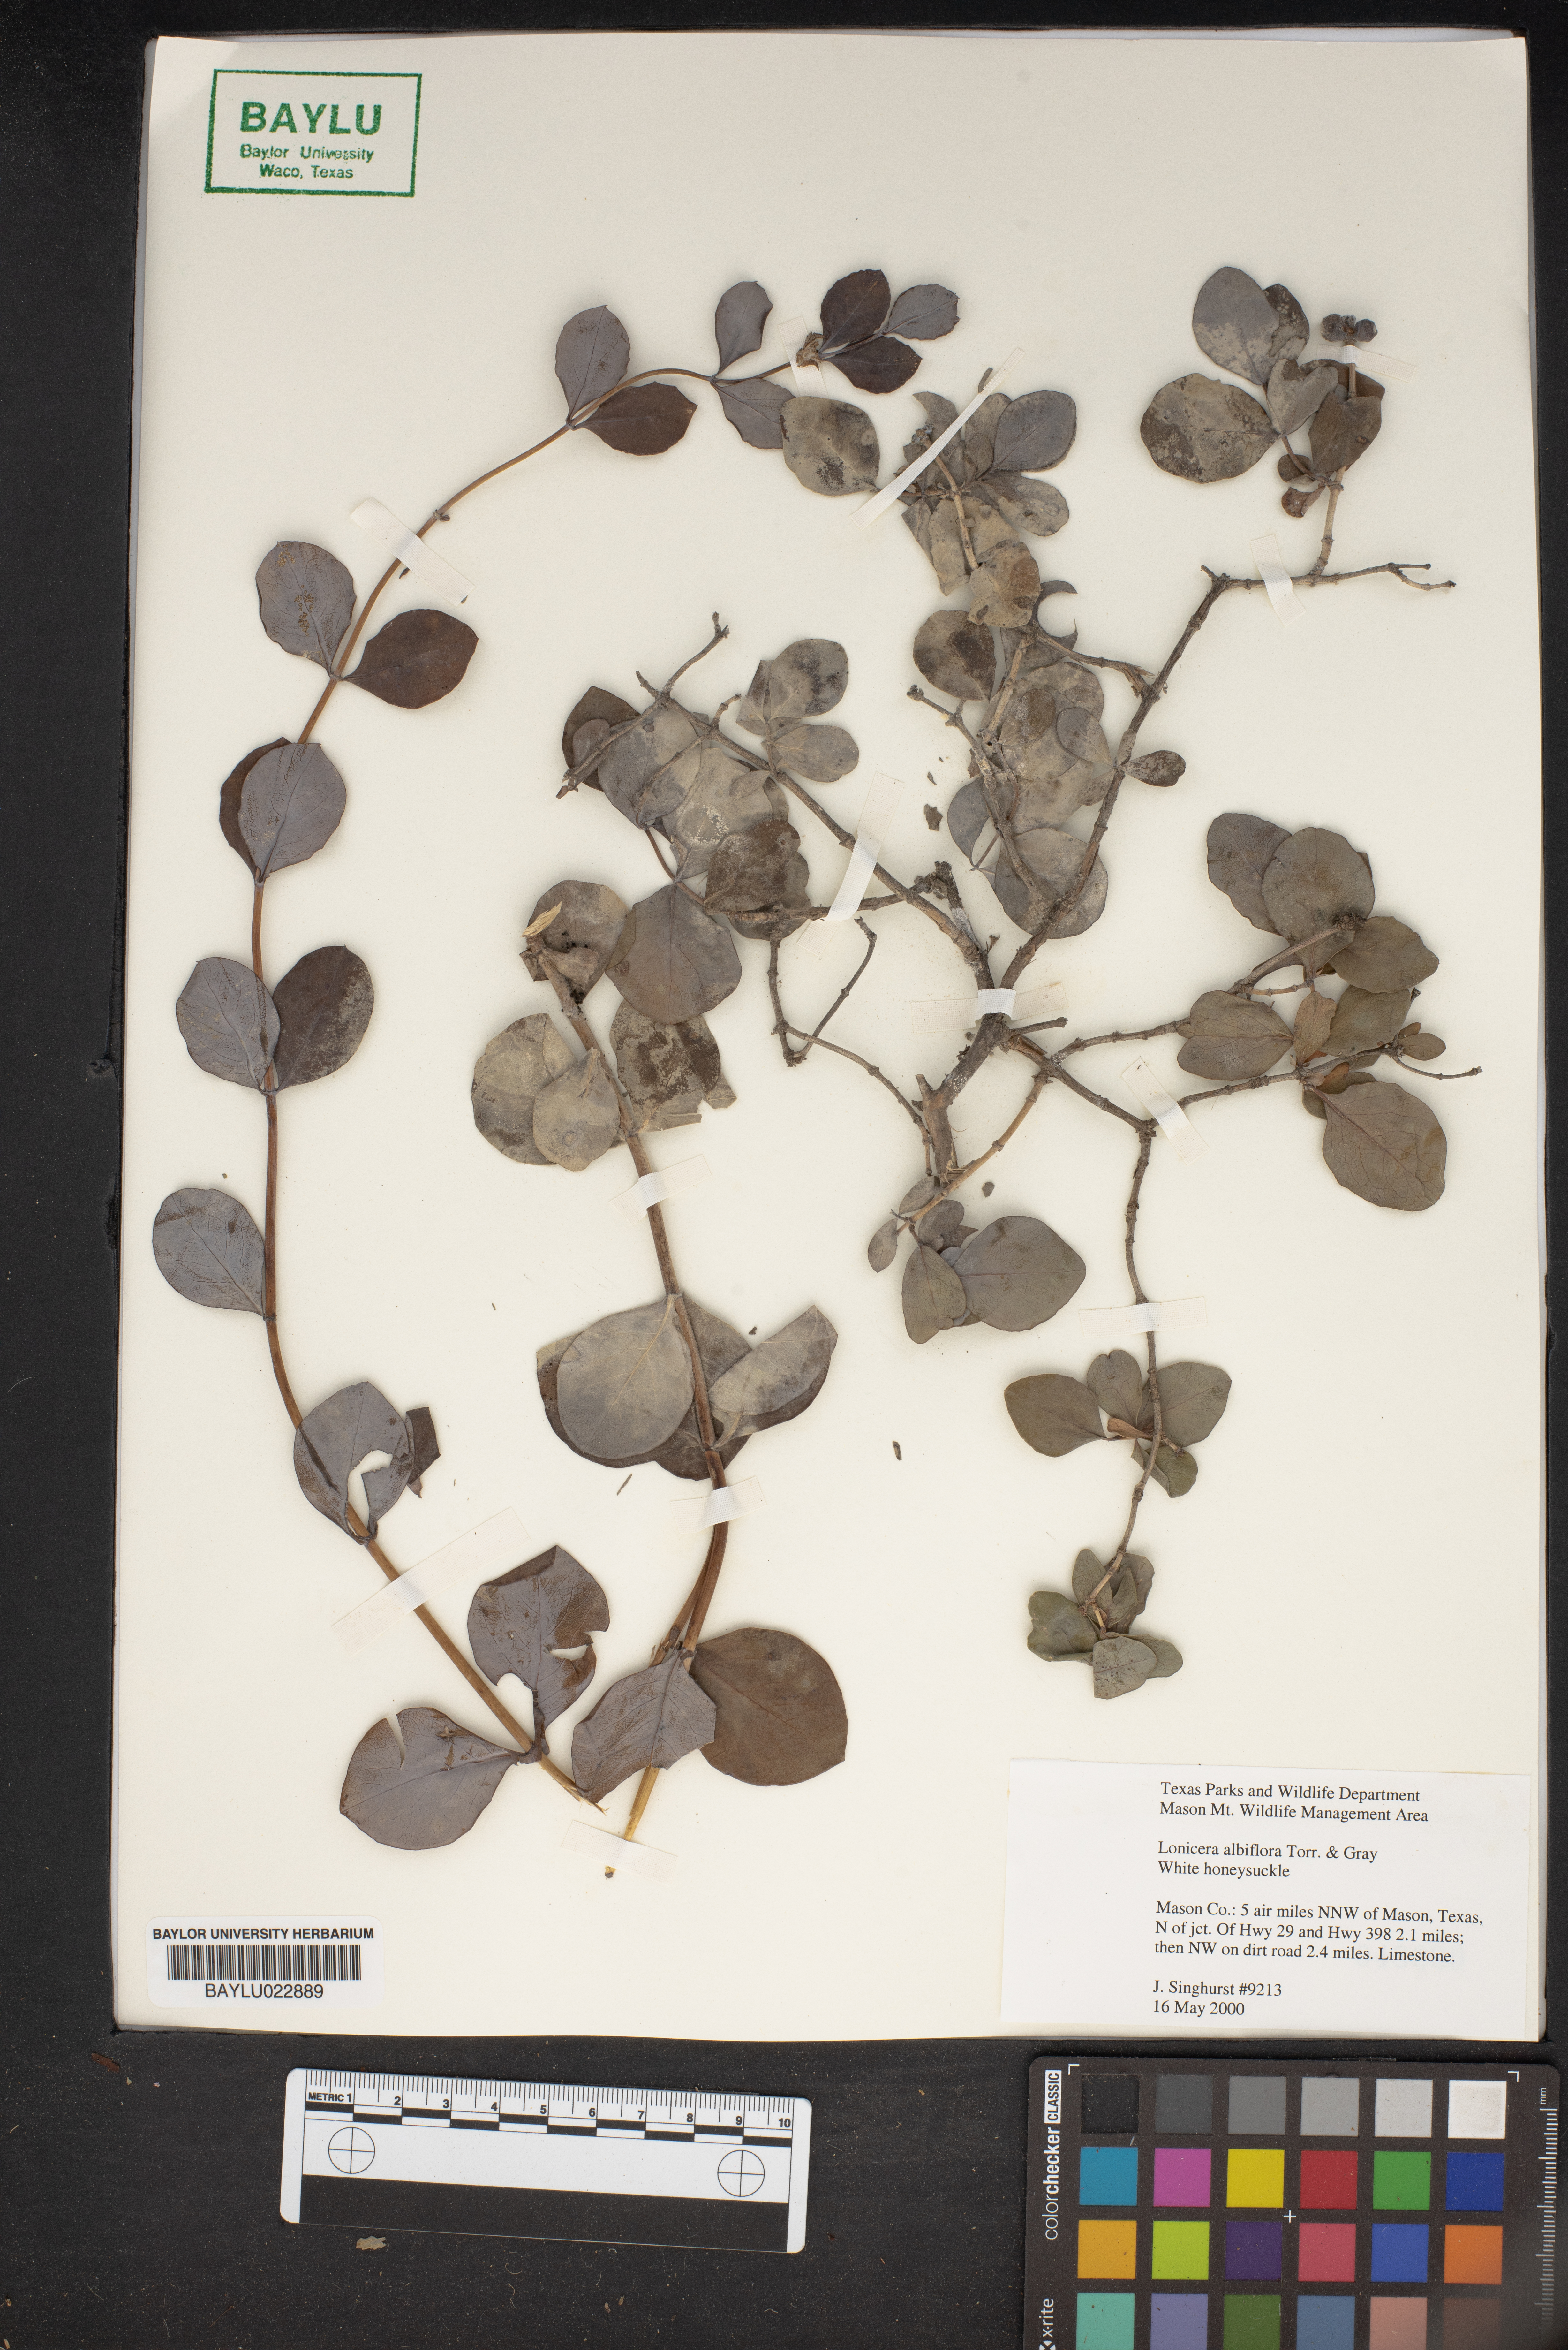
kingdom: Plantae
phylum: Tracheophyta
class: Magnoliopsida
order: Dipsacales
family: Caprifoliaceae
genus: Lonicera
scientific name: Lonicera albiflora
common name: White honeysuckle
